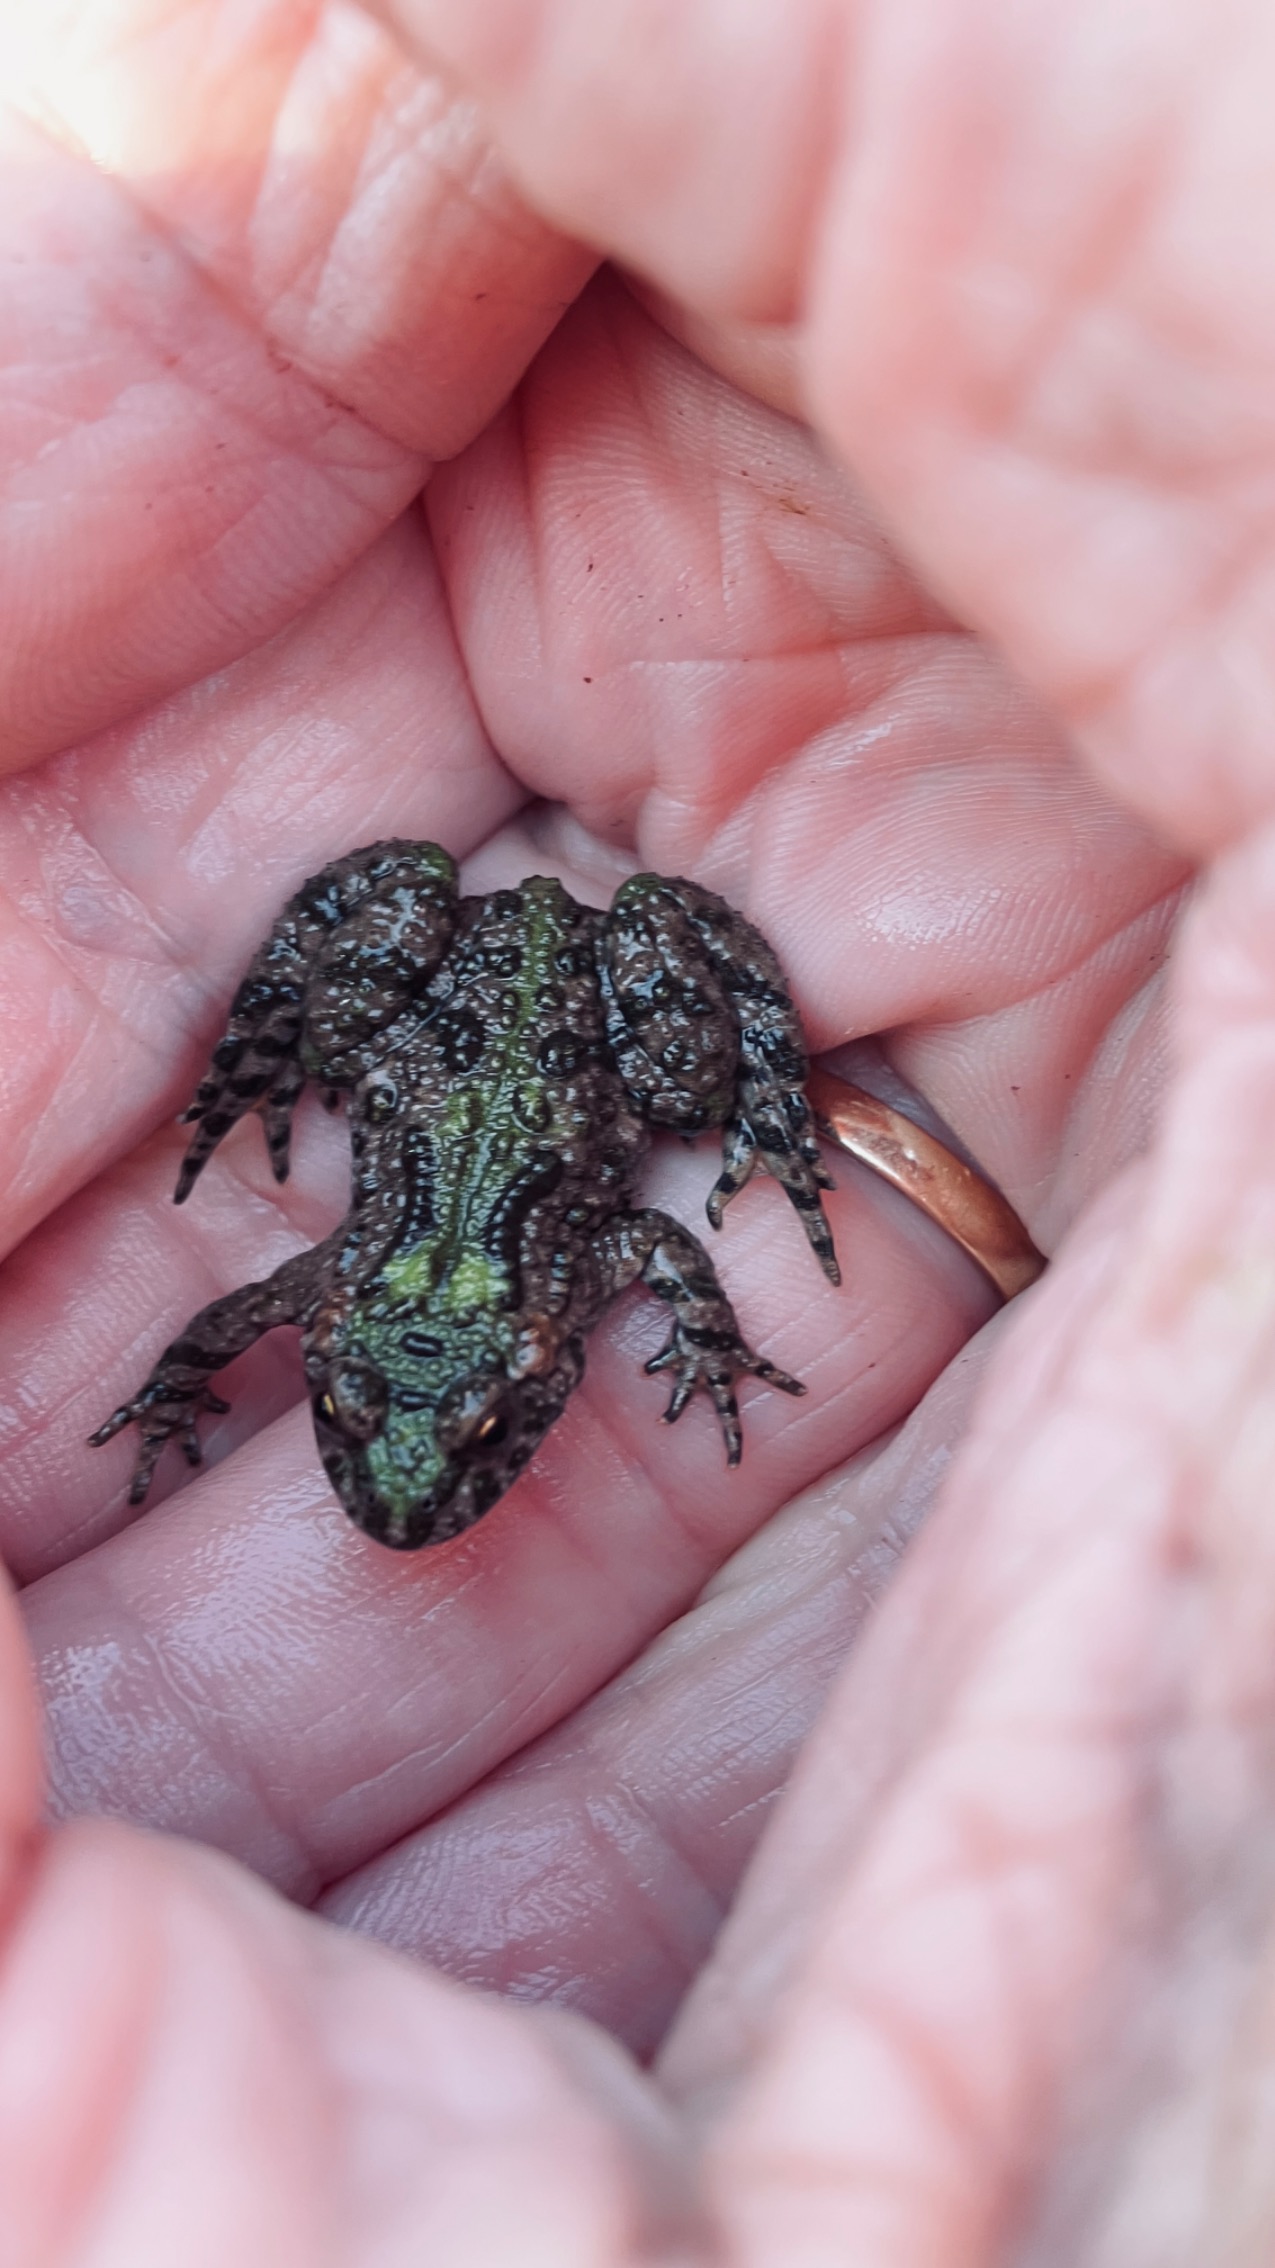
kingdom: Animalia
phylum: Chordata
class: Amphibia
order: Anura
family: Bombinatoridae
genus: Bombina
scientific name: Bombina bombina
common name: Klokkefrø
